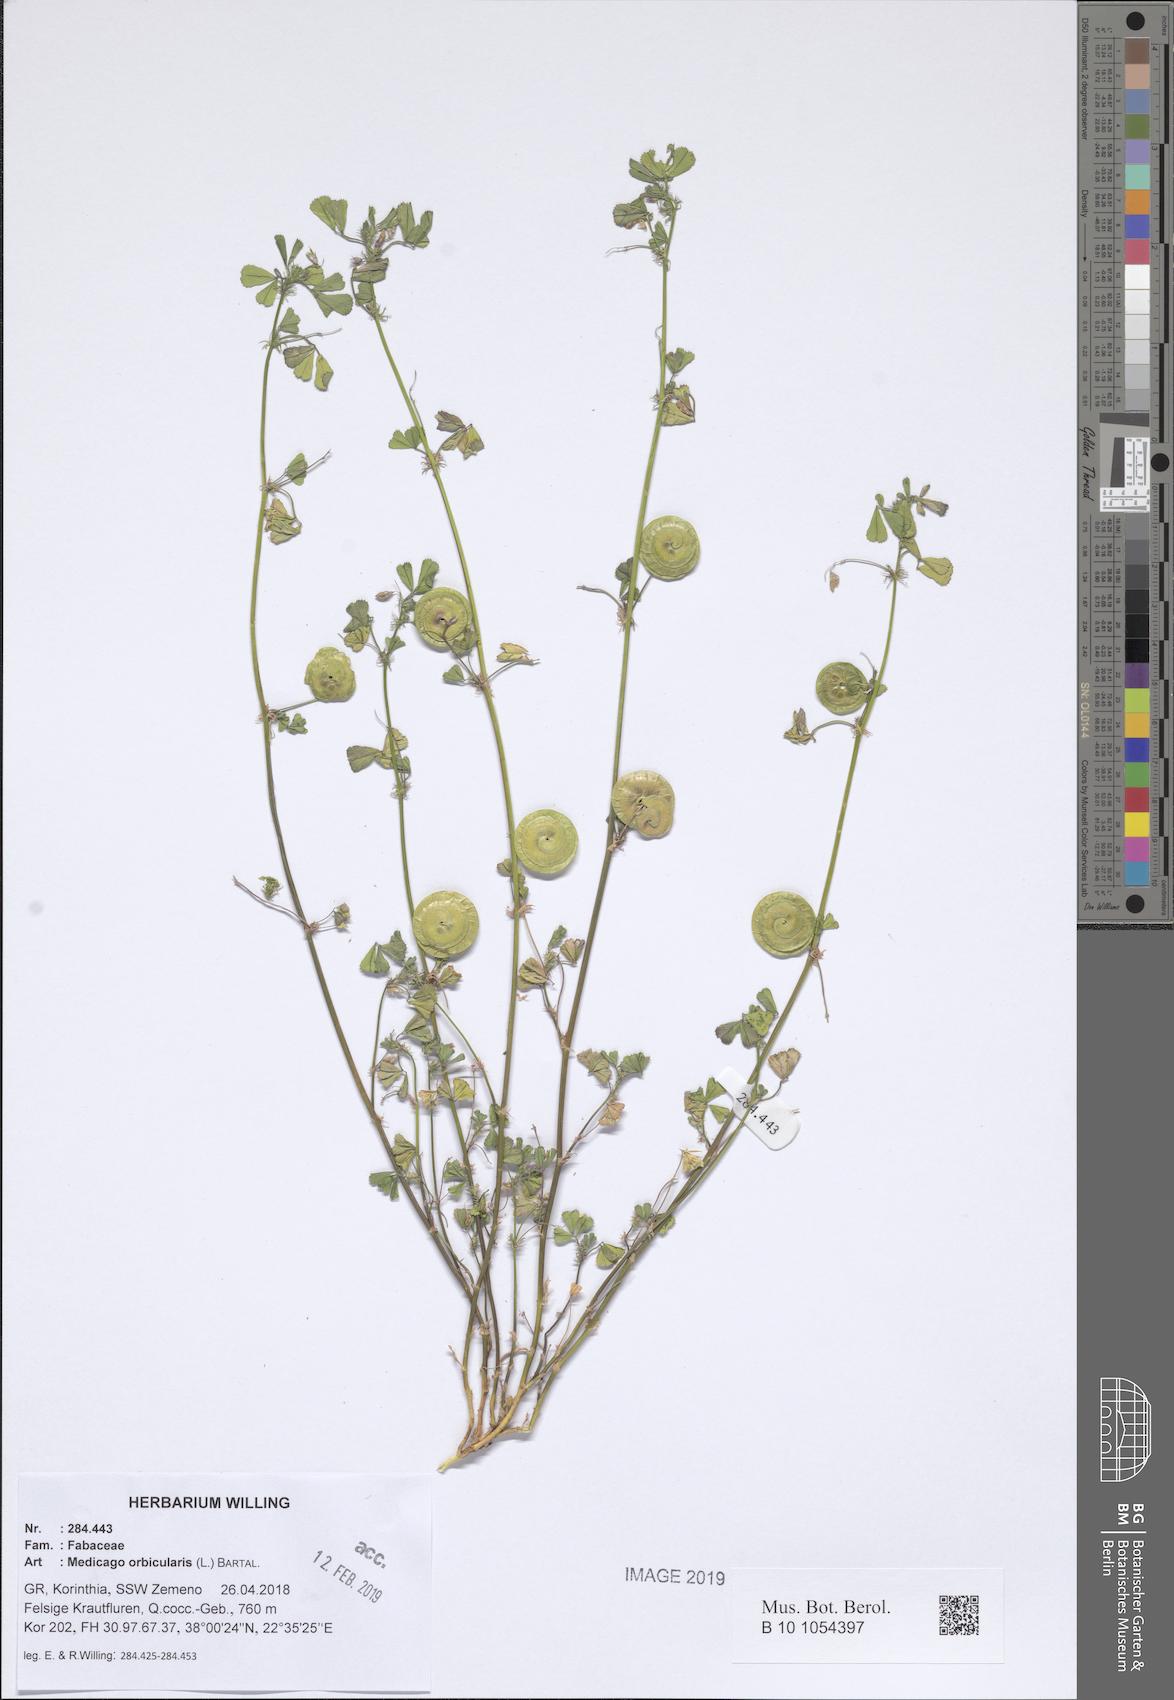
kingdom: Plantae
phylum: Tracheophyta
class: Magnoliopsida
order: Fabales
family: Fabaceae
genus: Medicago
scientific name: Medicago orbicularis
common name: Button medick
